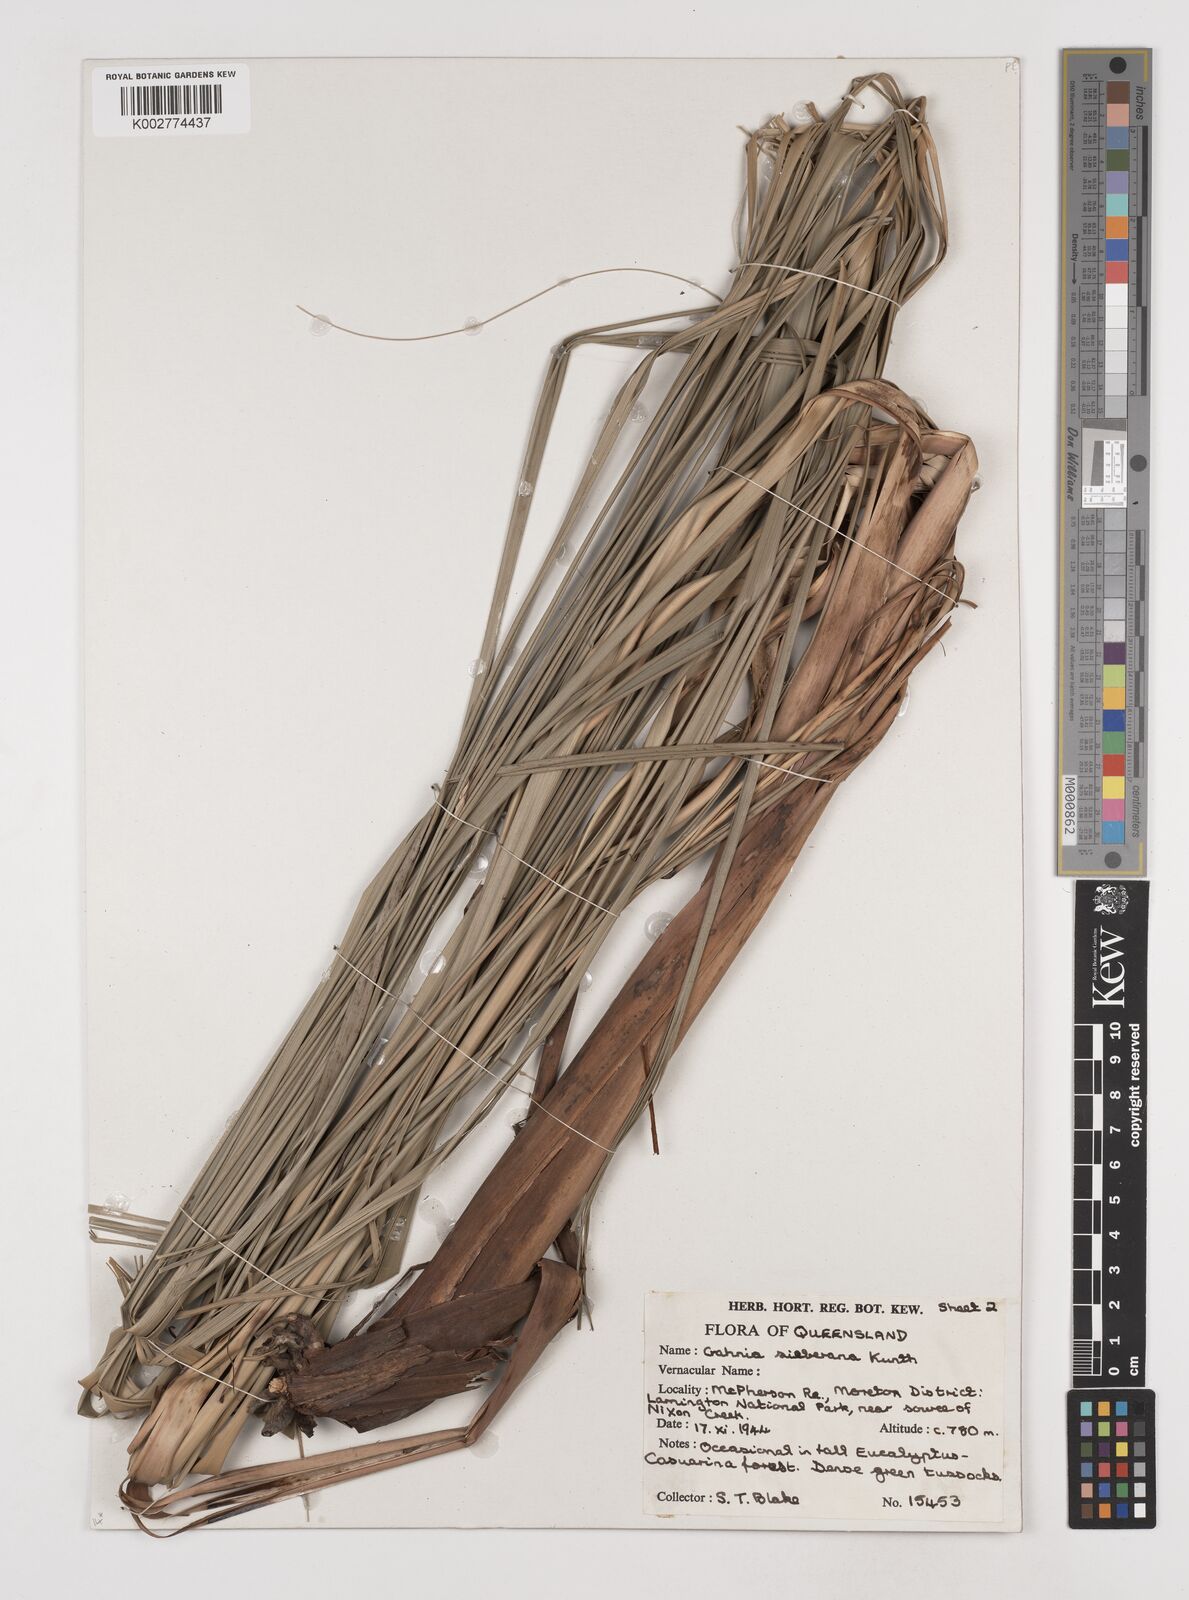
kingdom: Plantae
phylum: Tracheophyta
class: Liliopsida
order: Poales
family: Cyperaceae
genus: Gahnia
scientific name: Gahnia sieberiana
